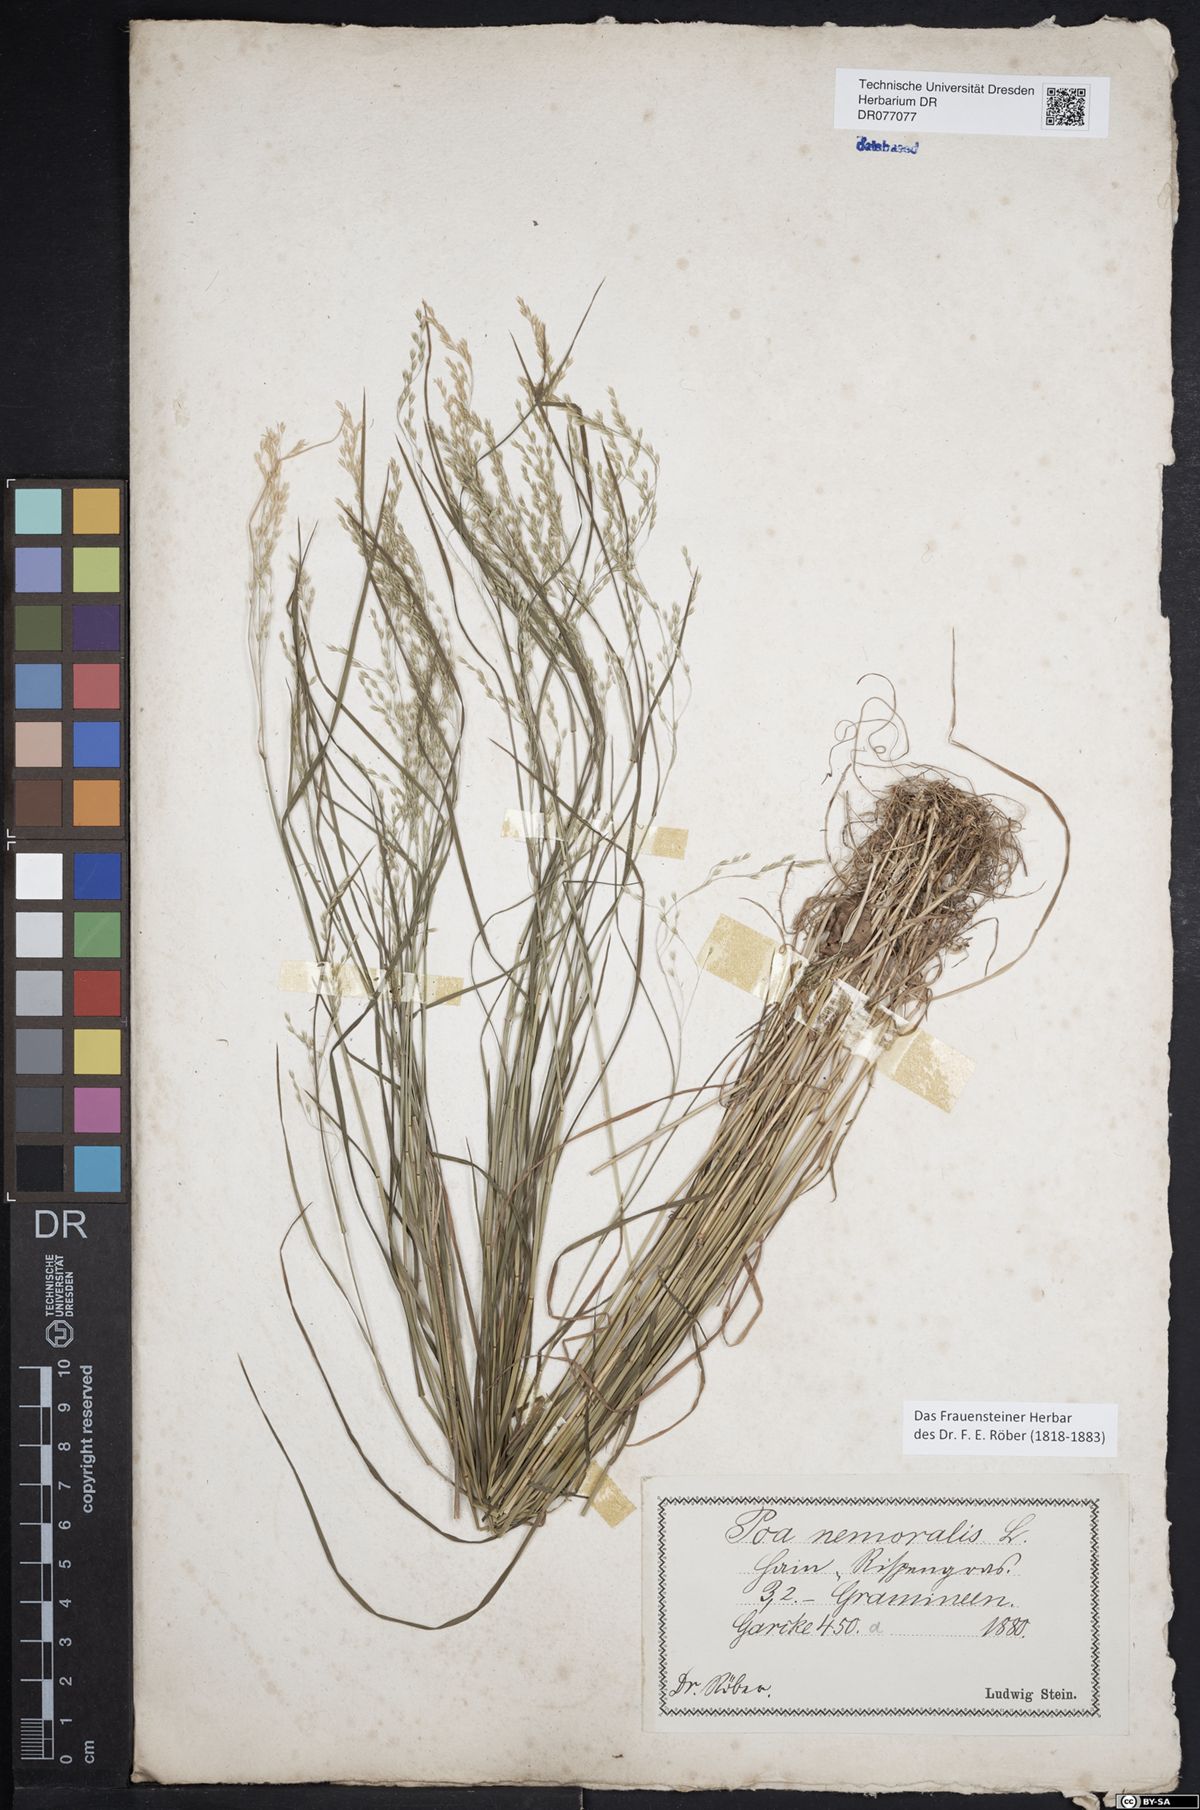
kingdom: Plantae
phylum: Tracheophyta
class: Liliopsida
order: Poales
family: Poaceae
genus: Poa
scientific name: Poa nemoralis
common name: Wood bluegrass
